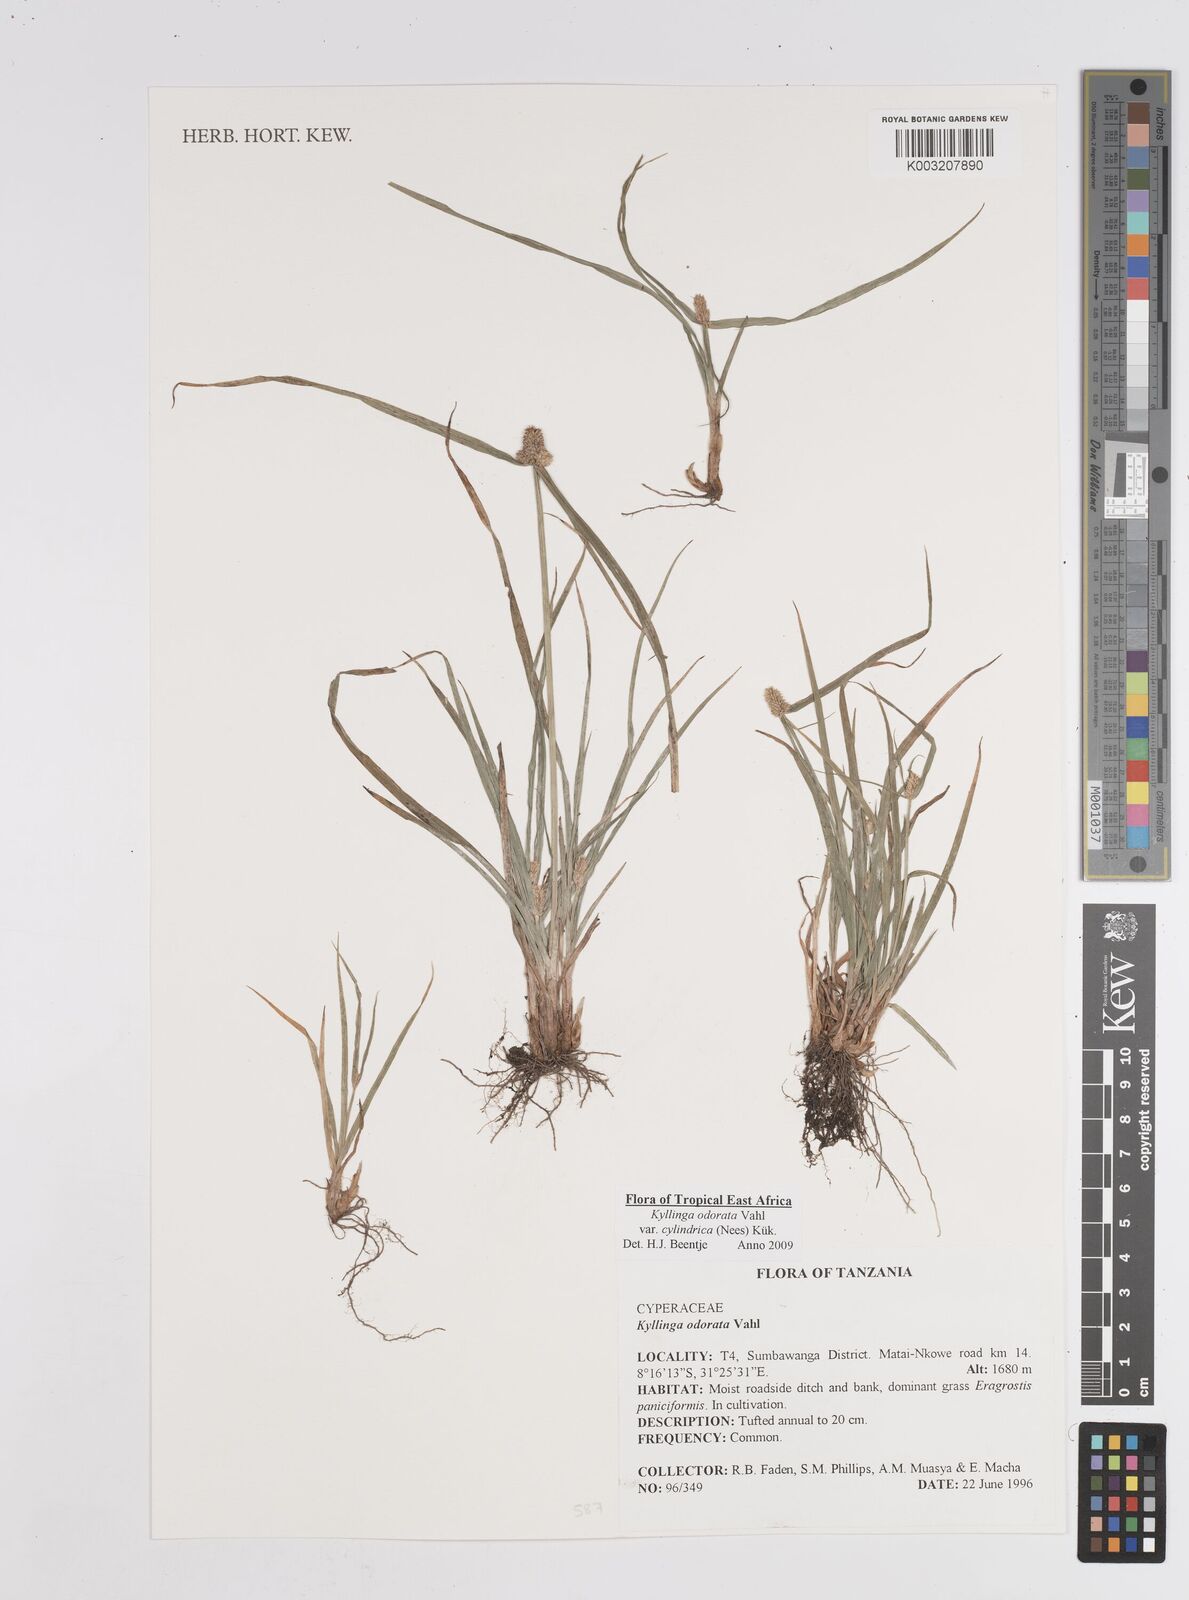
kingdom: Plantae
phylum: Tracheophyta
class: Liliopsida
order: Poales
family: Cyperaceae
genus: Cyperus
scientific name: Cyperus
